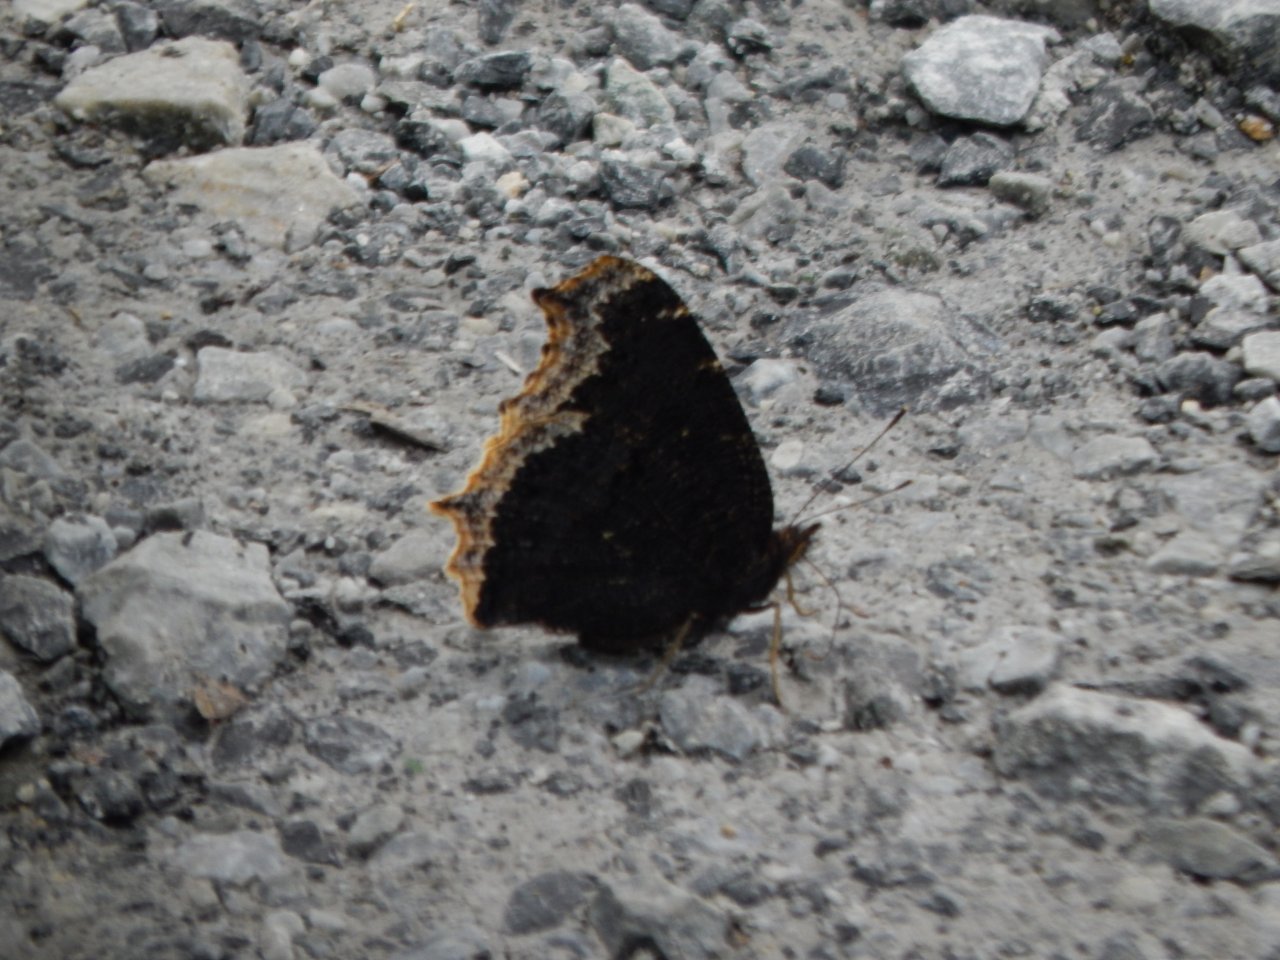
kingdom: Animalia
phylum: Arthropoda
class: Insecta
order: Lepidoptera
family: Nymphalidae
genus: Nymphalis
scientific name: Nymphalis antiopa
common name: Mourning Cloak
